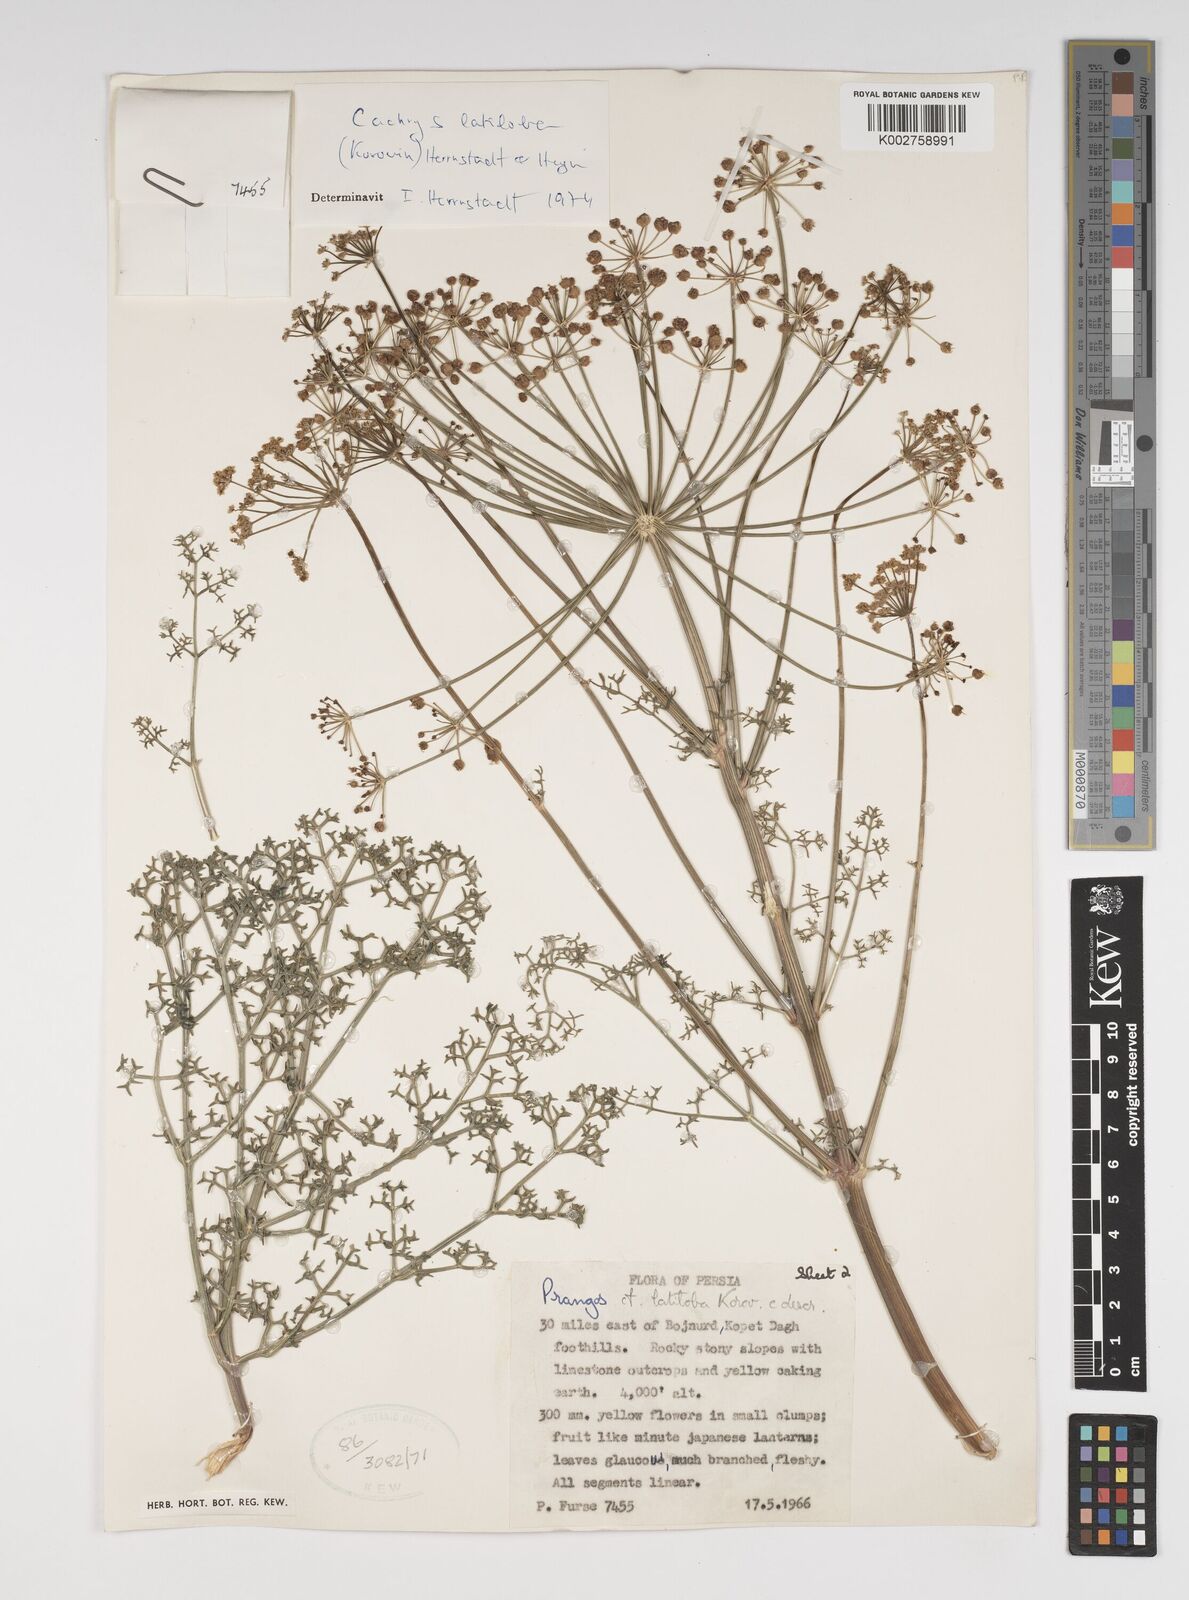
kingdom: Plantae
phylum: Tracheophyta
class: Magnoliopsida
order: Apiales
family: Apiaceae
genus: Prangos
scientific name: Prangos latiloba
